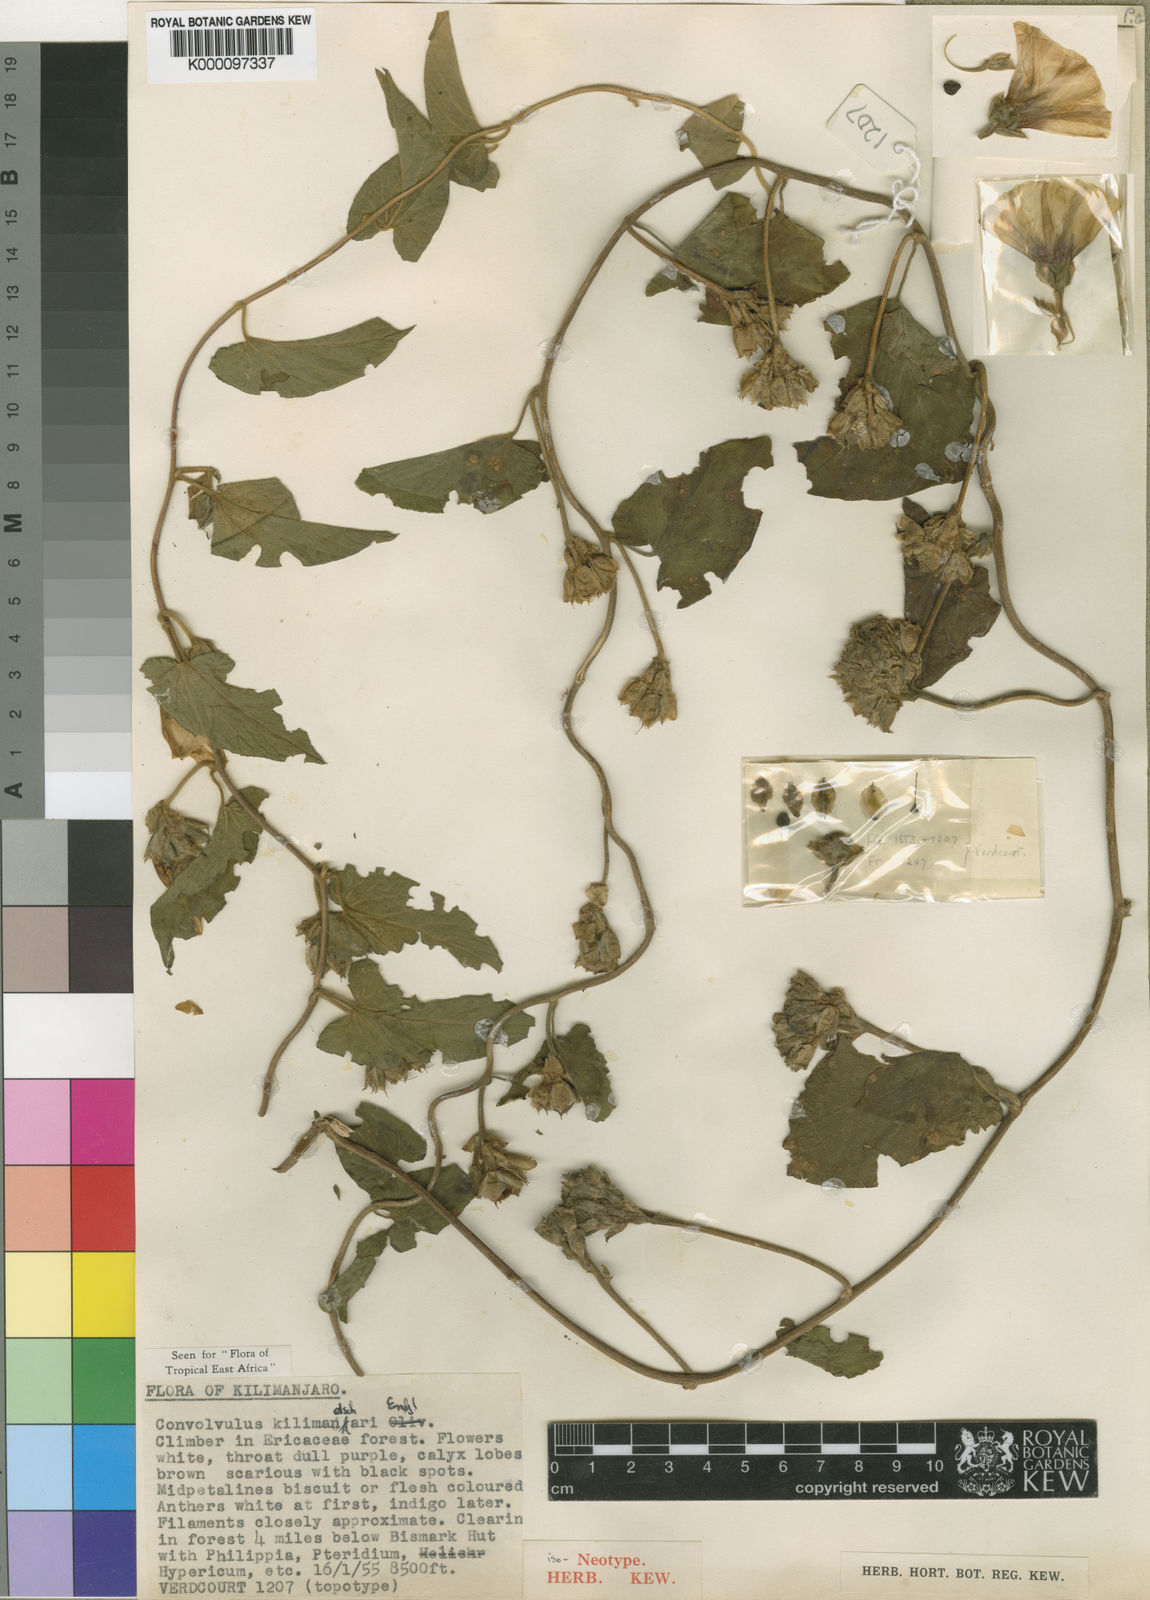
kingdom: Plantae
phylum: Tracheophyta
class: Magnoliopsida
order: Solanales
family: Convolvulaceae
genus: Convolvulus
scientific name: Convolvulus kilimandschari
